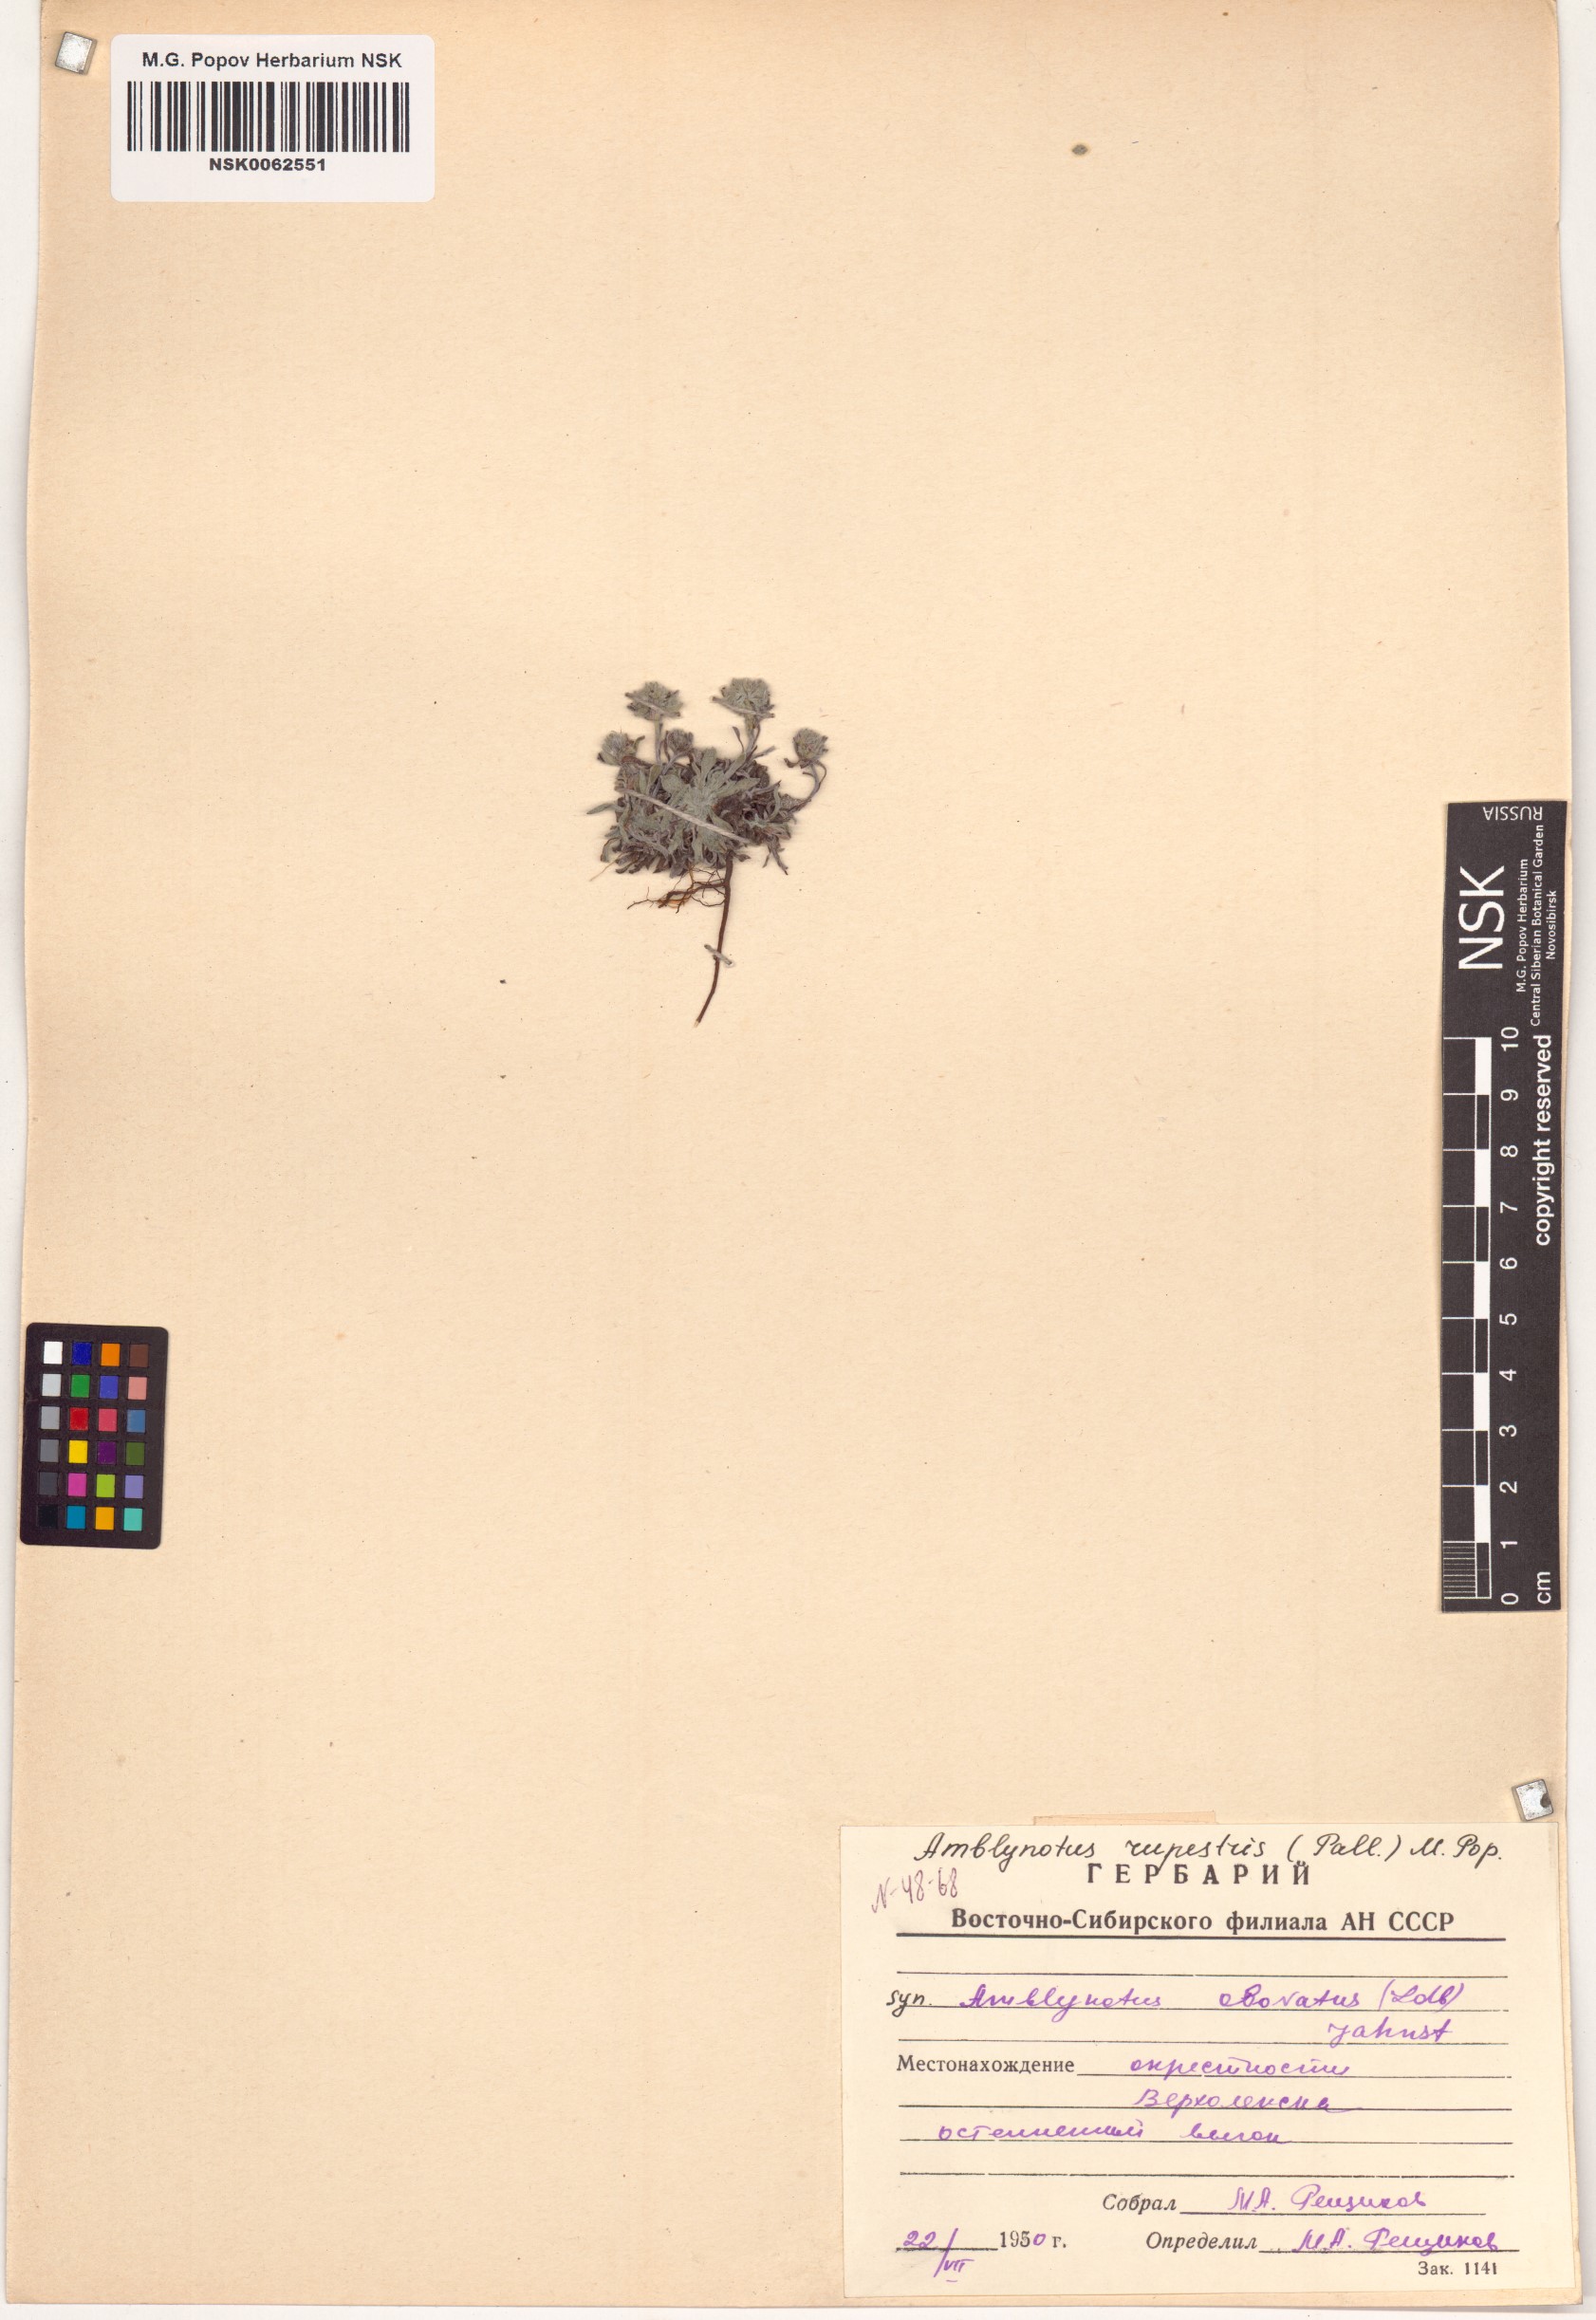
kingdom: Plantae
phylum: Tracheophyta
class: Magnoliopsida
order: Boraginales
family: Boraginaceae
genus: Eritrichium
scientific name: Eritrichium rupestre
